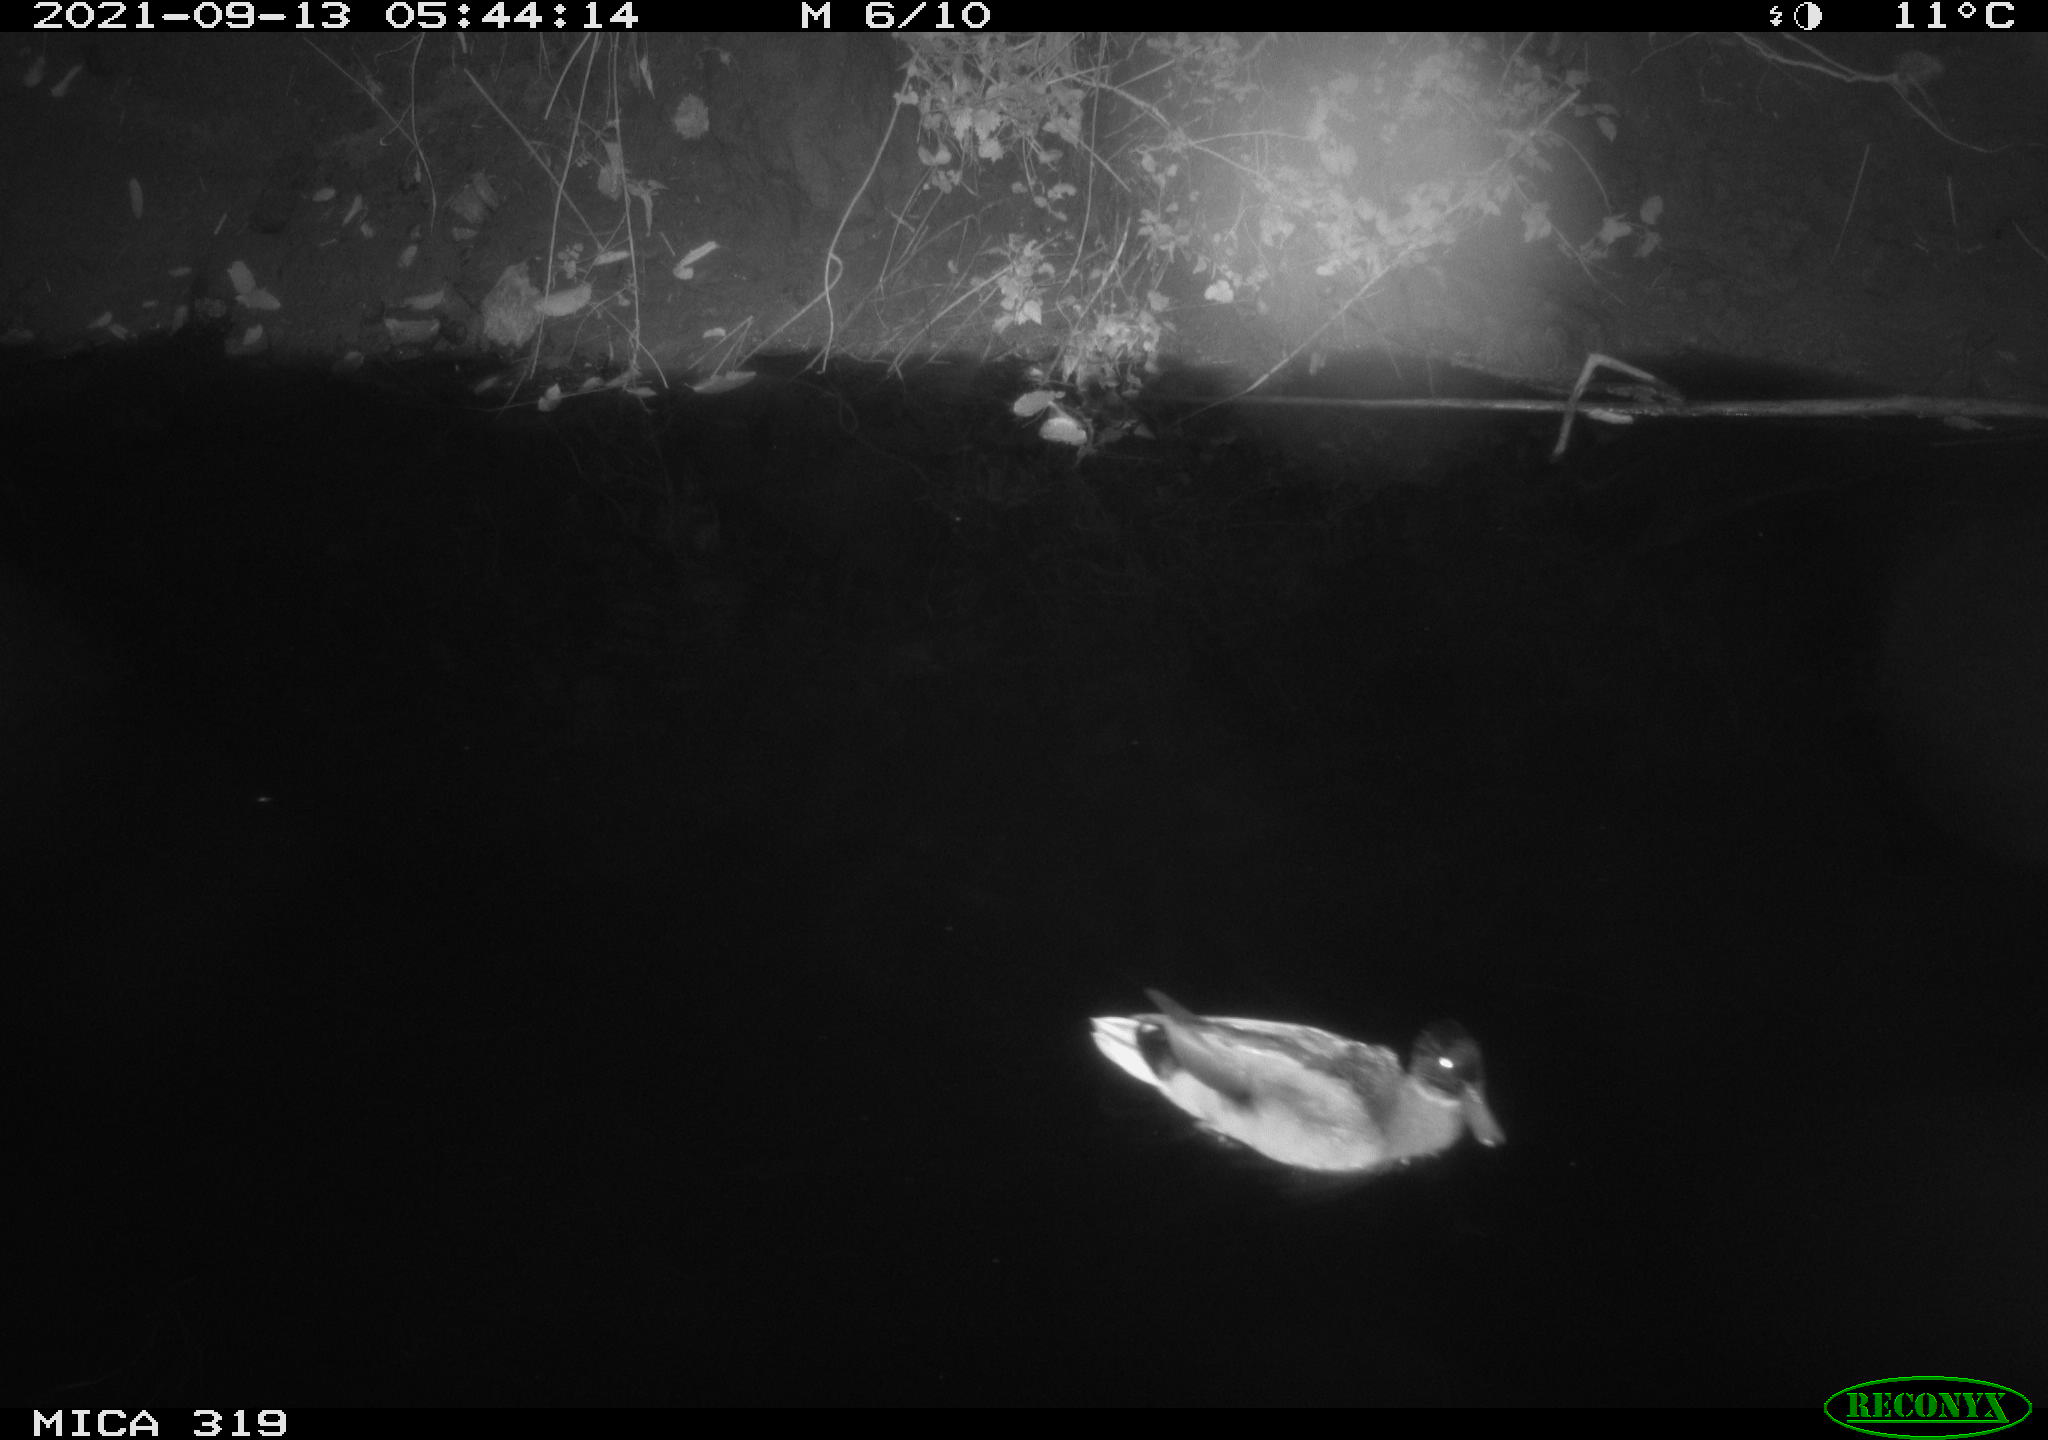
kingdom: Animalia
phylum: Chordata
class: Aves
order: Anseriformes
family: Anatidae
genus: Anas
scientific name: Anas platyrhynchos
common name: Mallard
